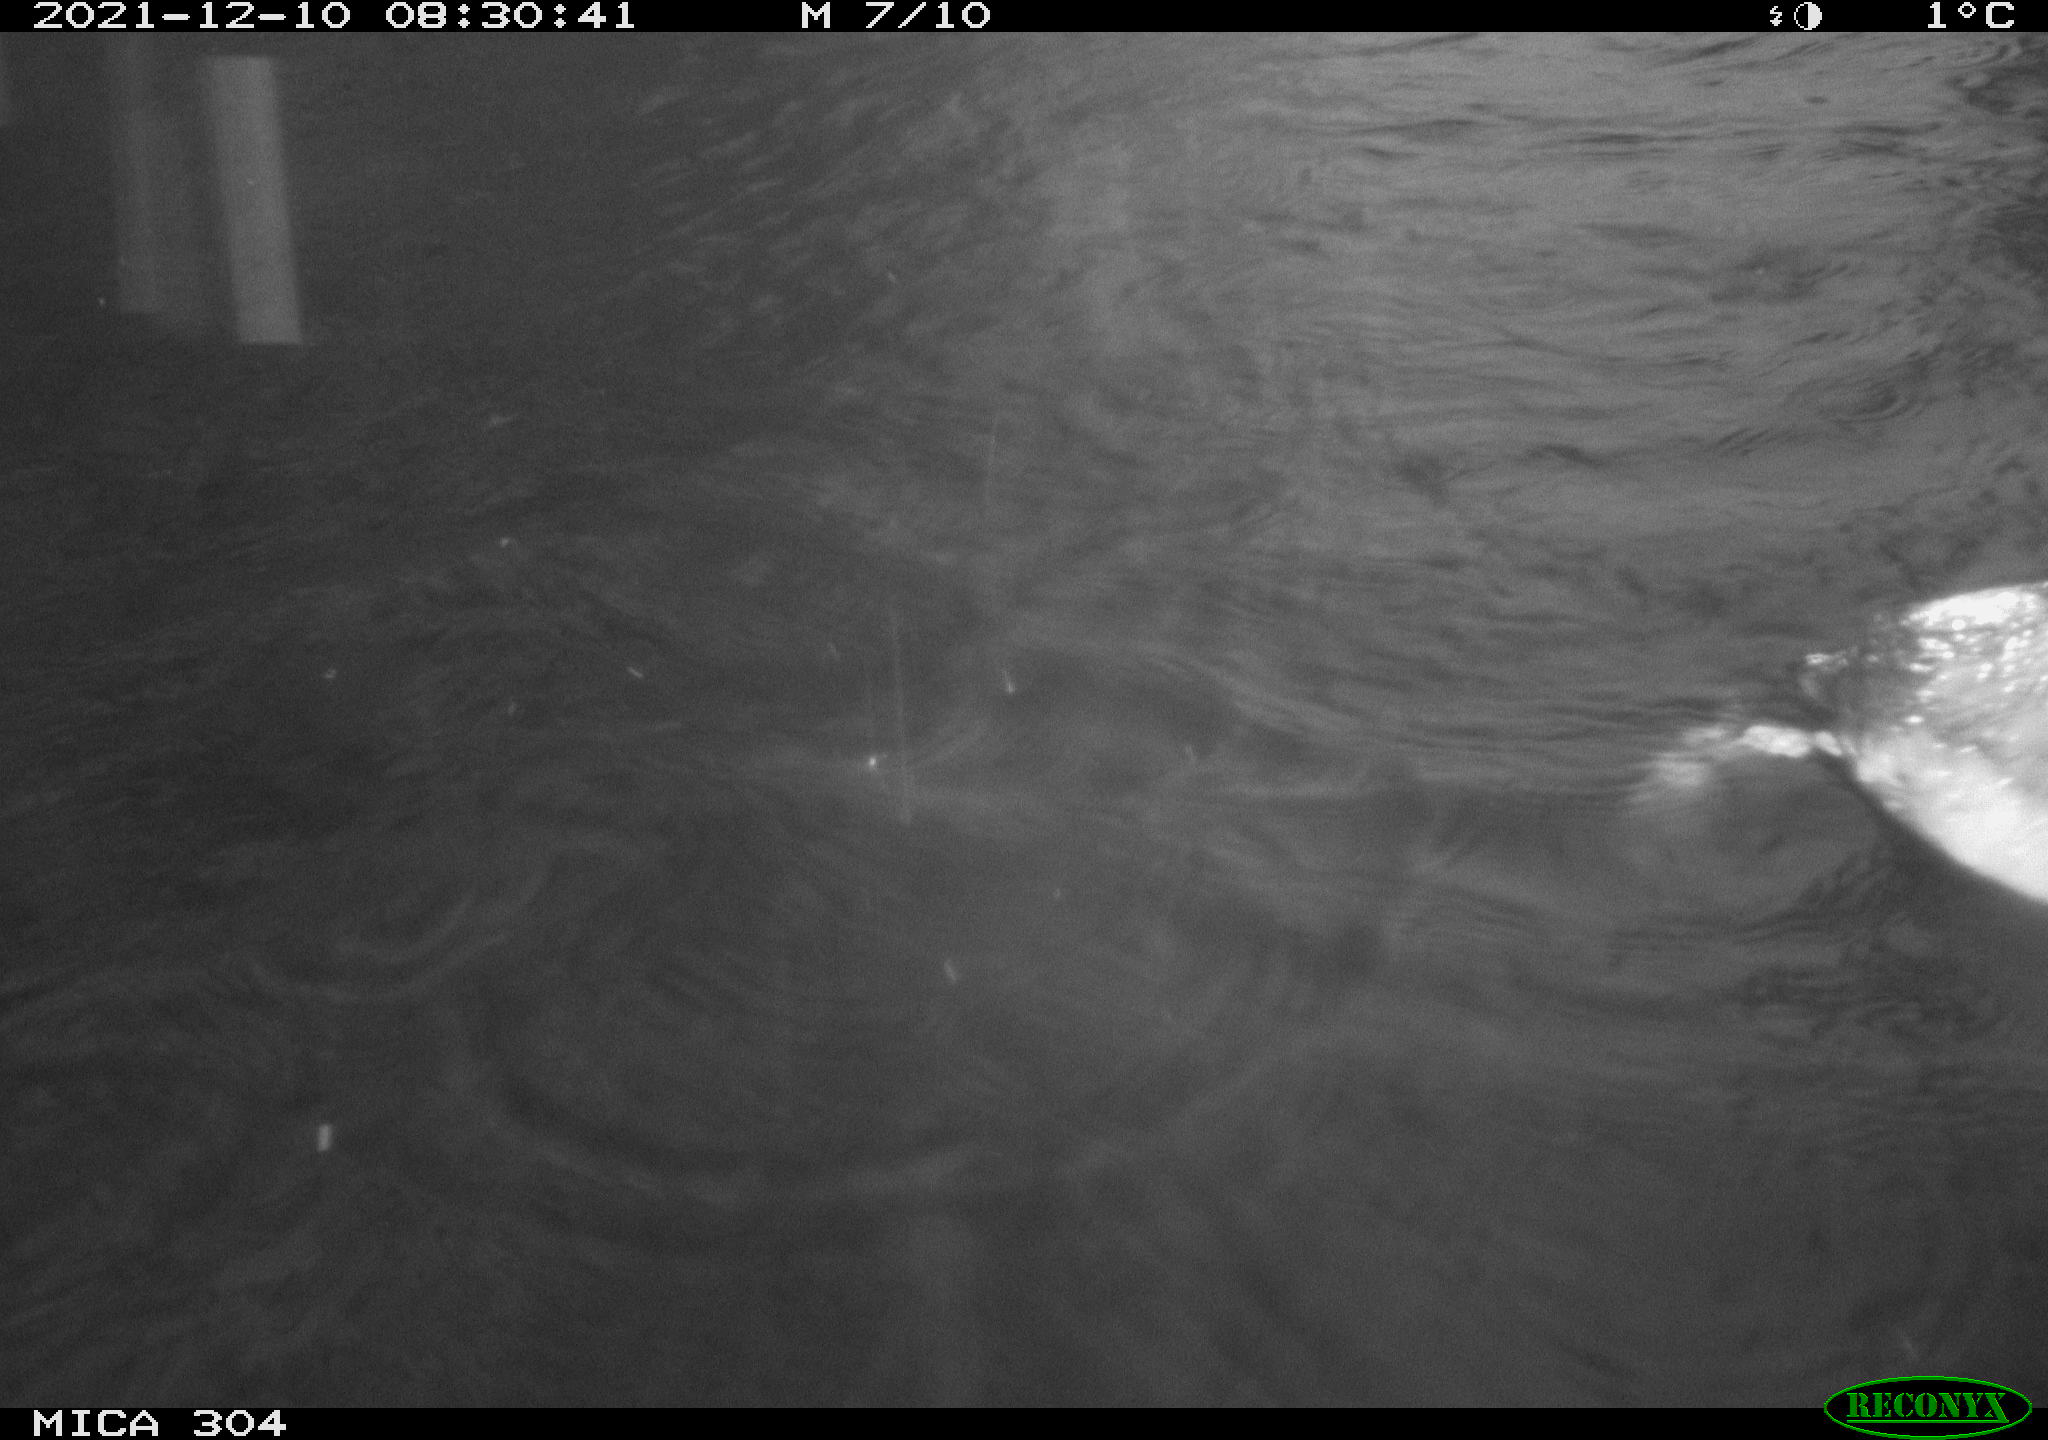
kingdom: Animalia
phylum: Chordata
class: Aves
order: Anseriformes
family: Anatidae
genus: Anas
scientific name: Anas
